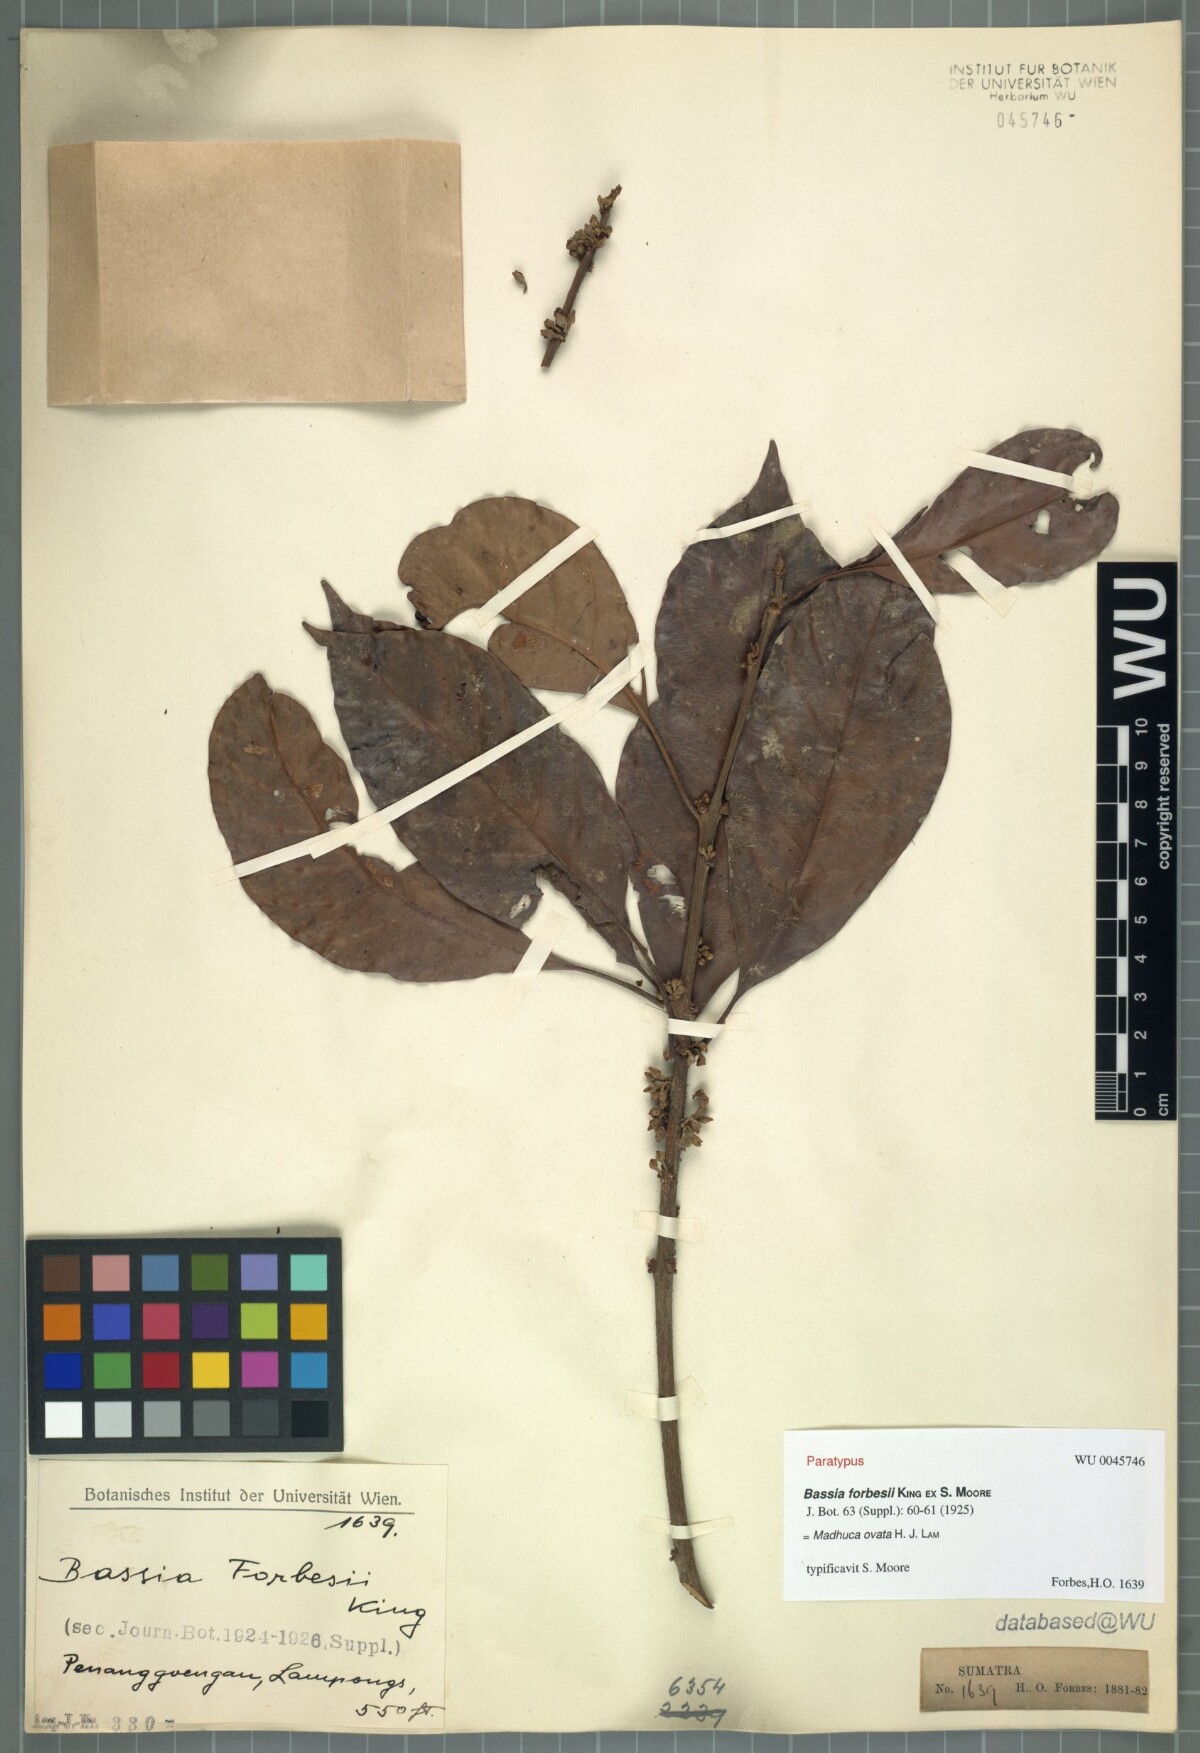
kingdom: Plantae
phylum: Tracheophyta
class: Magnoliopsida
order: Ericales
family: Sapotaceae
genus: Madhuca
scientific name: Madhuca ovata
